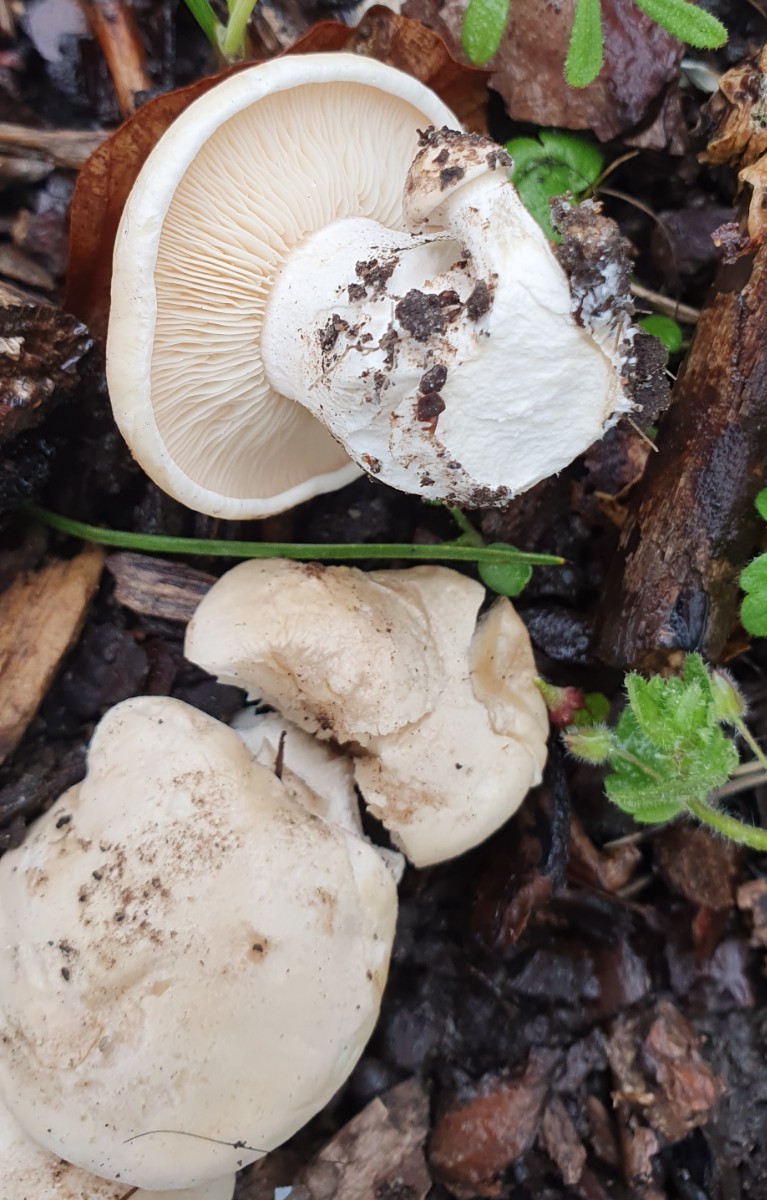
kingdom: Fungi
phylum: Basidiomycota
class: Agaricomycetes
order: Agaricales
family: Lyophyllaceae
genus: Calocybe
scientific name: Calocybe gambosa
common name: vårmusseron
